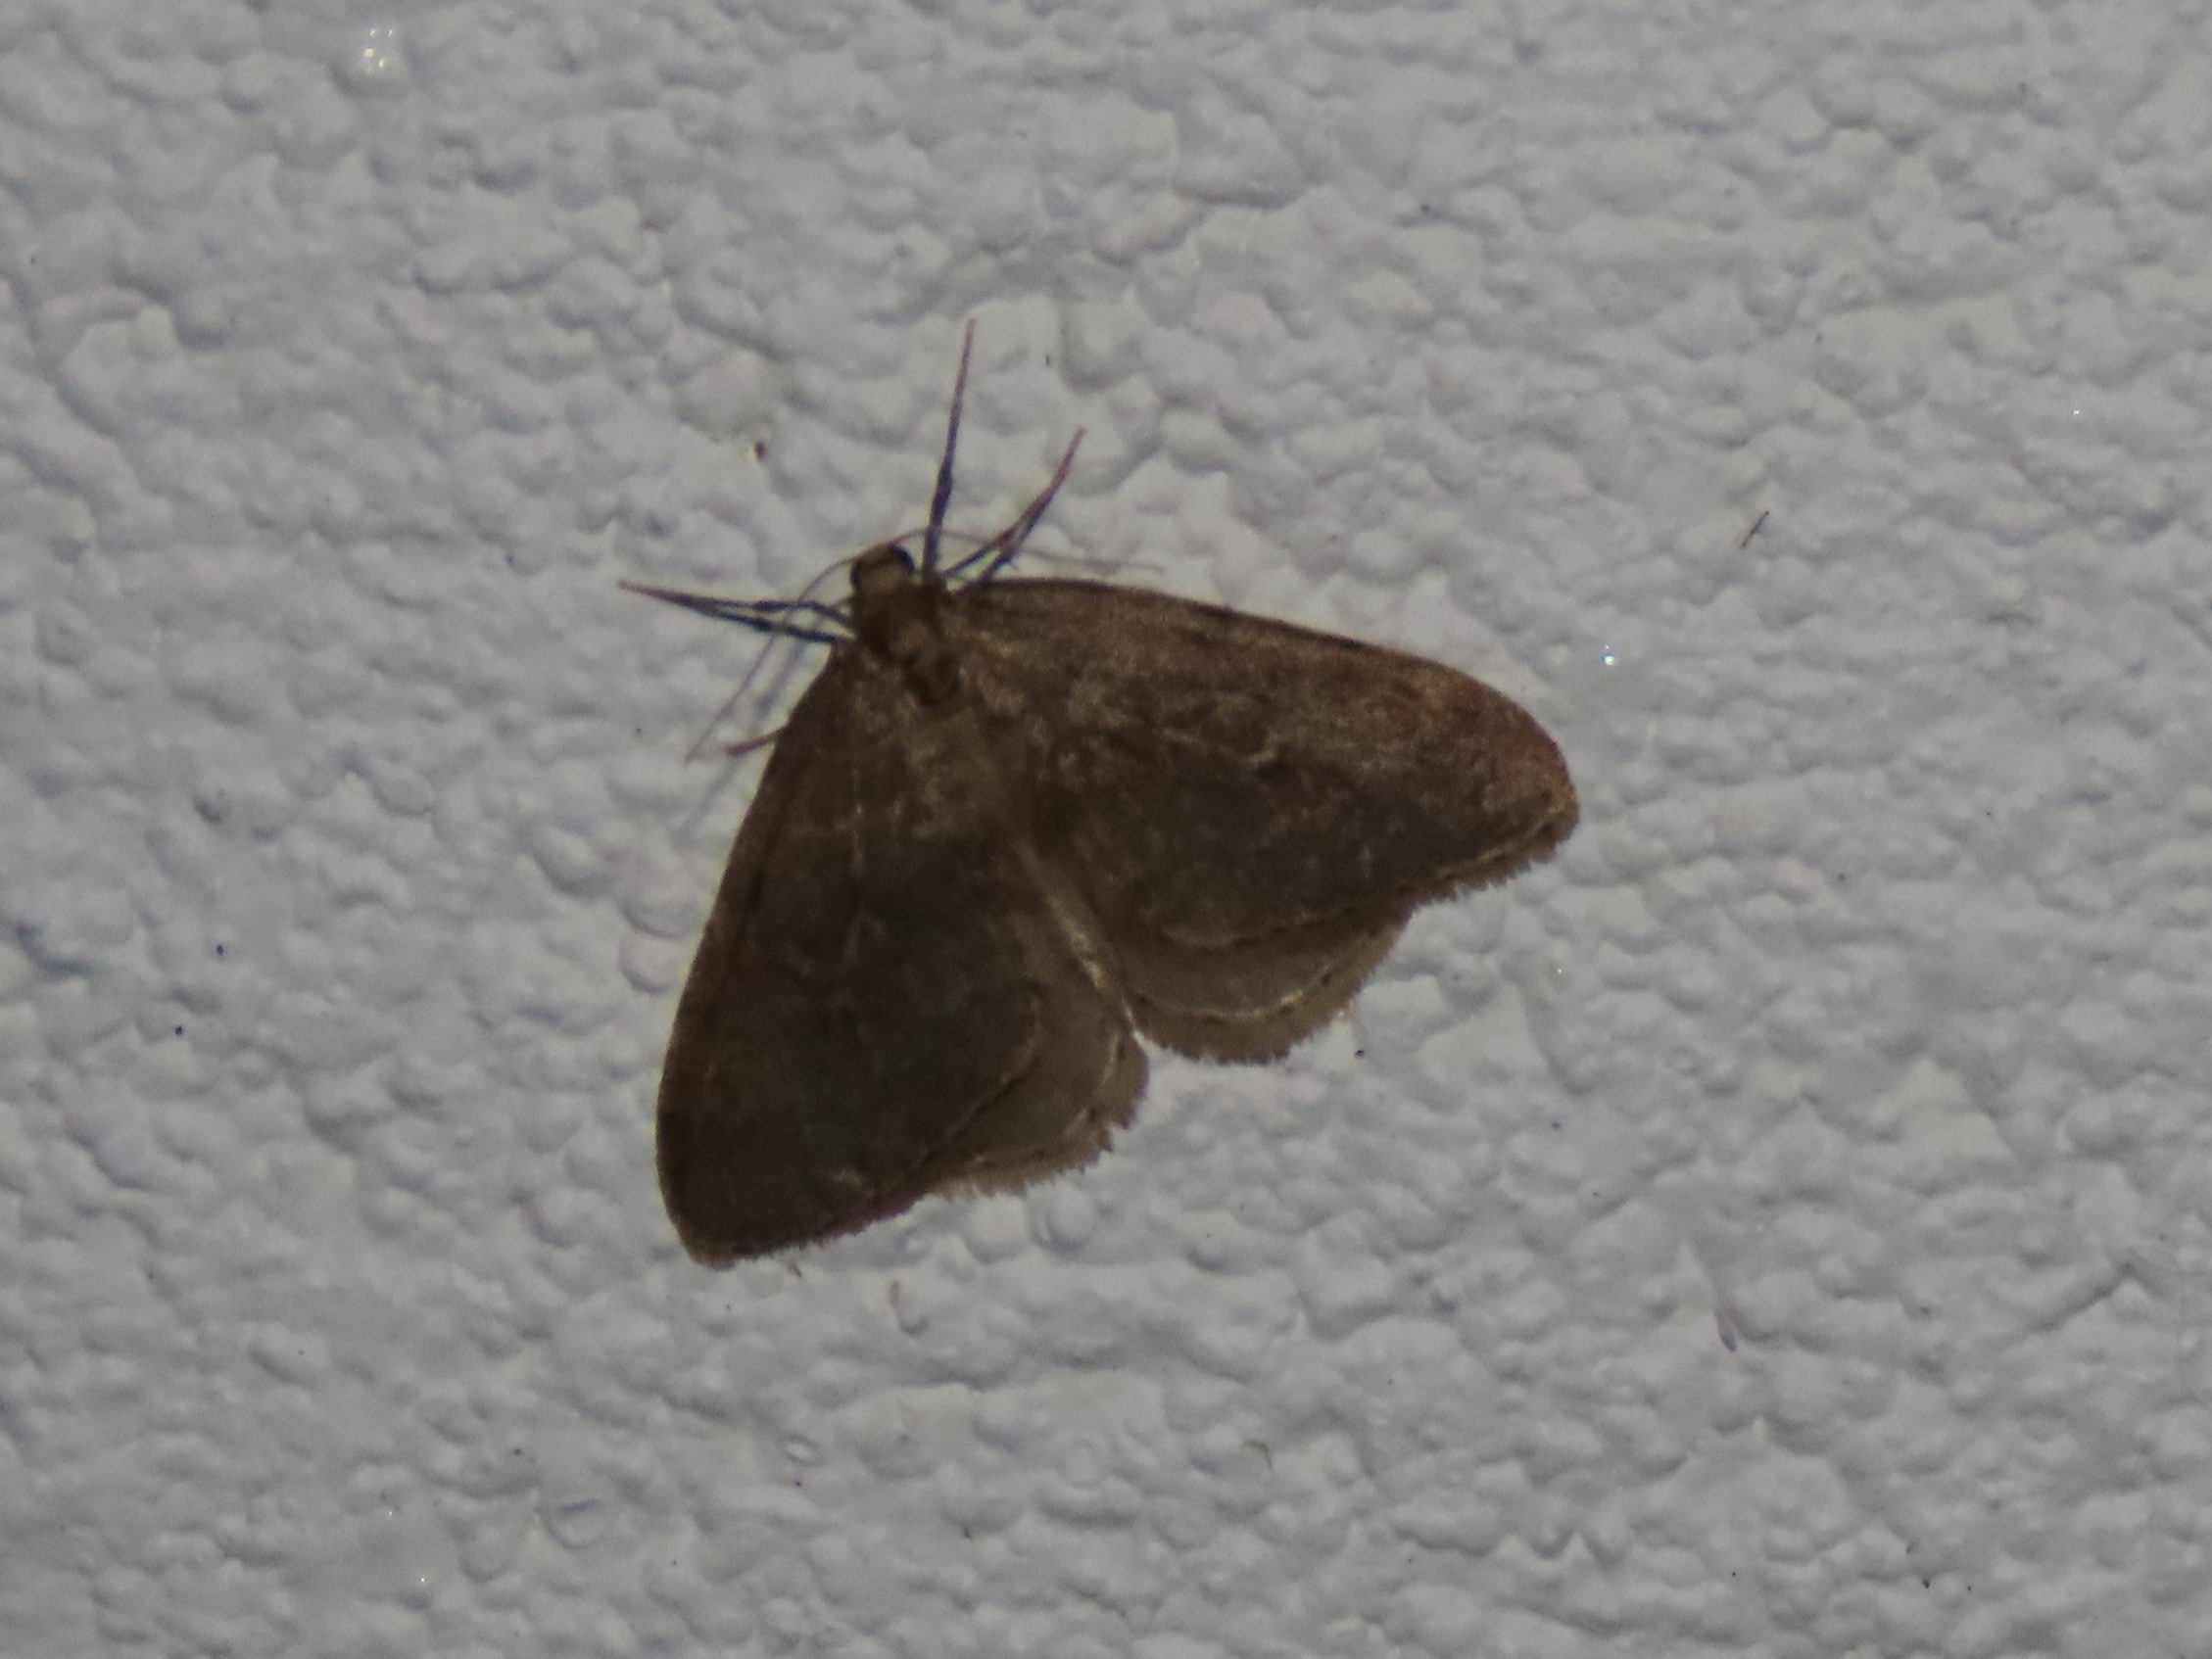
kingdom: Animalia
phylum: Arthropoda
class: Insecta
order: Lepidoptera
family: Geometridae
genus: Operophtera
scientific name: Operophtera brumata
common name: Lille frostmåler
